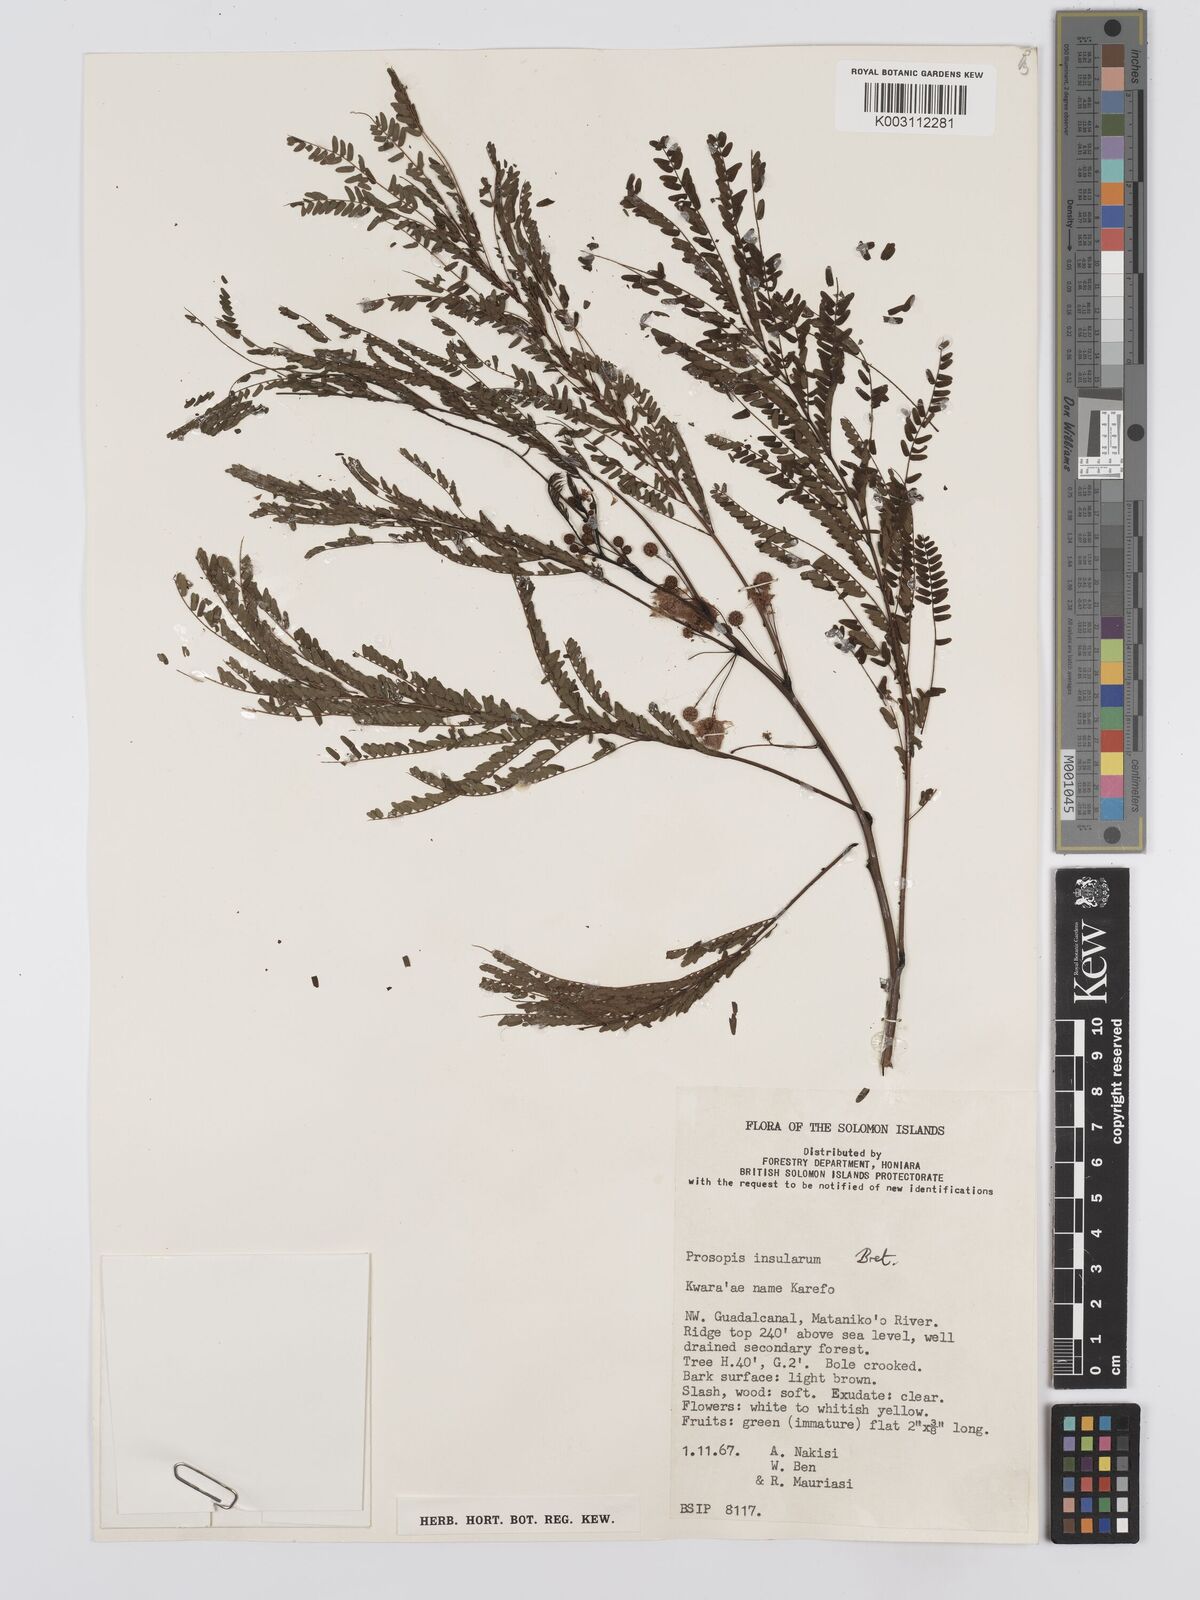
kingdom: Plantae
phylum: Tracheophyta
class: Magnoliopsida
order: Fabales
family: Fabaceae
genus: Schleinitzia
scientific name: Schleinitzia novoguineensis
